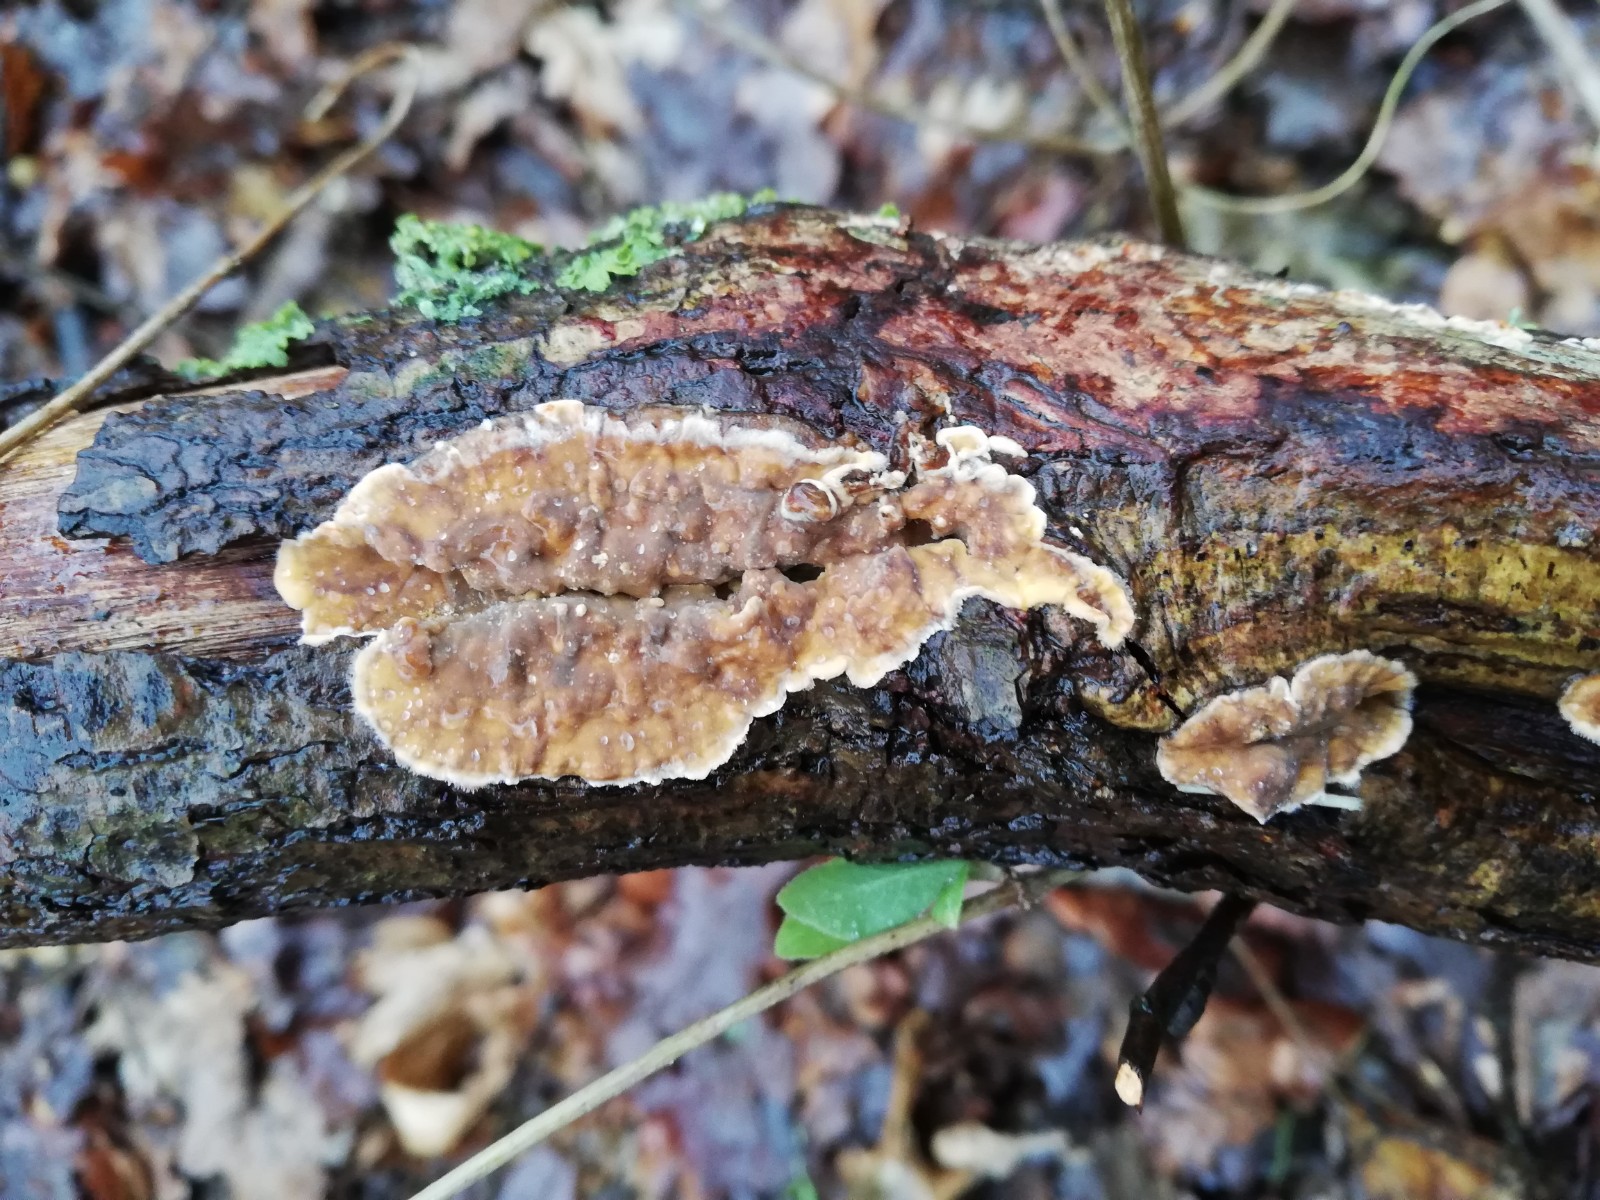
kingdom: Fungi
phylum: Basidiomycota
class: Agaricomycetes
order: Russulales
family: Stereaceae
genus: Stereum
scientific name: Stereum hirsutum
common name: håret lædersvamp
